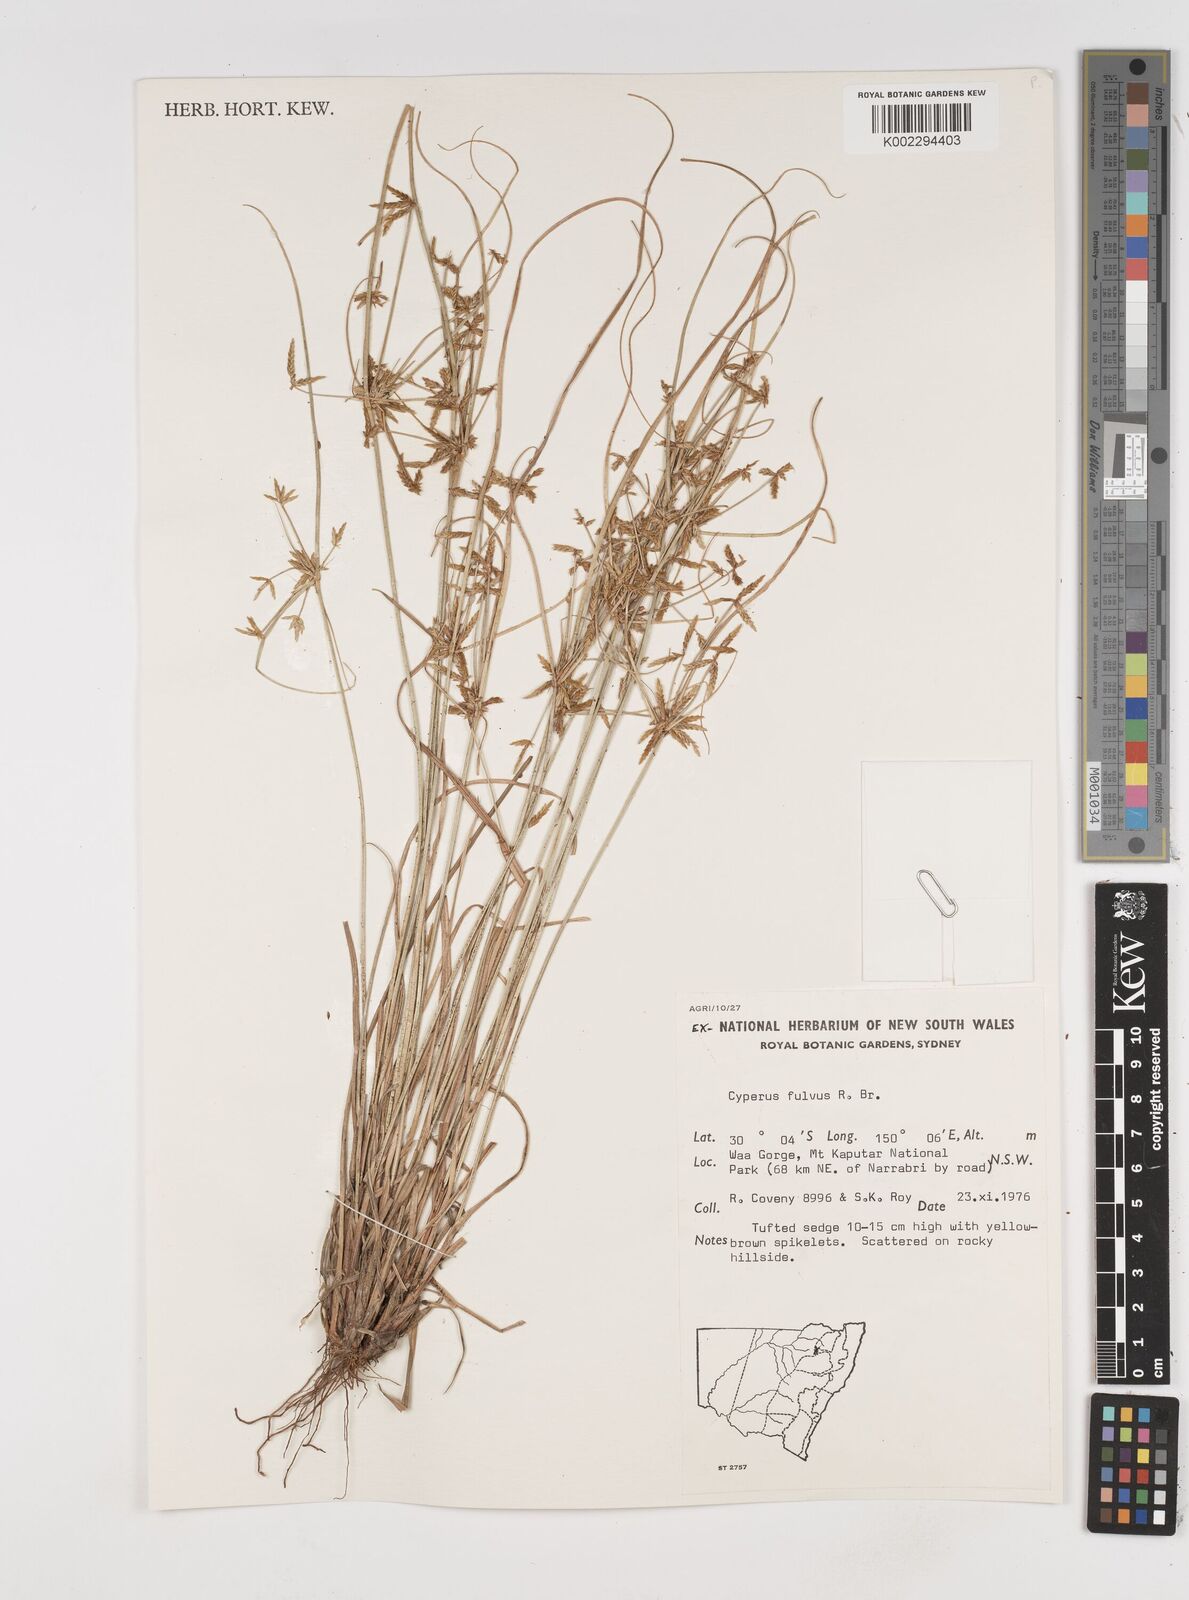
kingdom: Plantae
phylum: Tracheophyta
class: Liliopsida
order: Poales
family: Cyperaceae
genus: Cyperus
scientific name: Cyperus fulvus
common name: Sticky sedge
